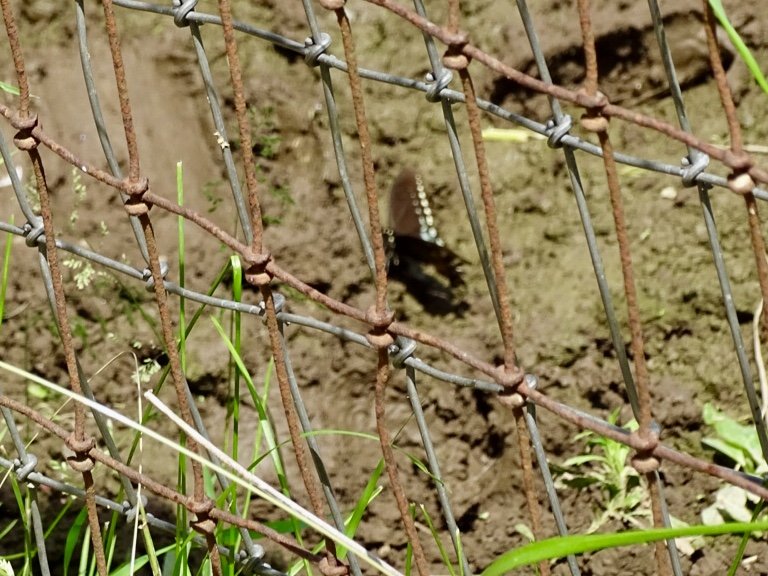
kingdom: Animalia
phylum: Arthropoda
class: Insecta
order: Lepidoptera
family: Papilionidae
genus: Pterourus
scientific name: Pterourus troilus
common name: Spicebush Swallowtail
